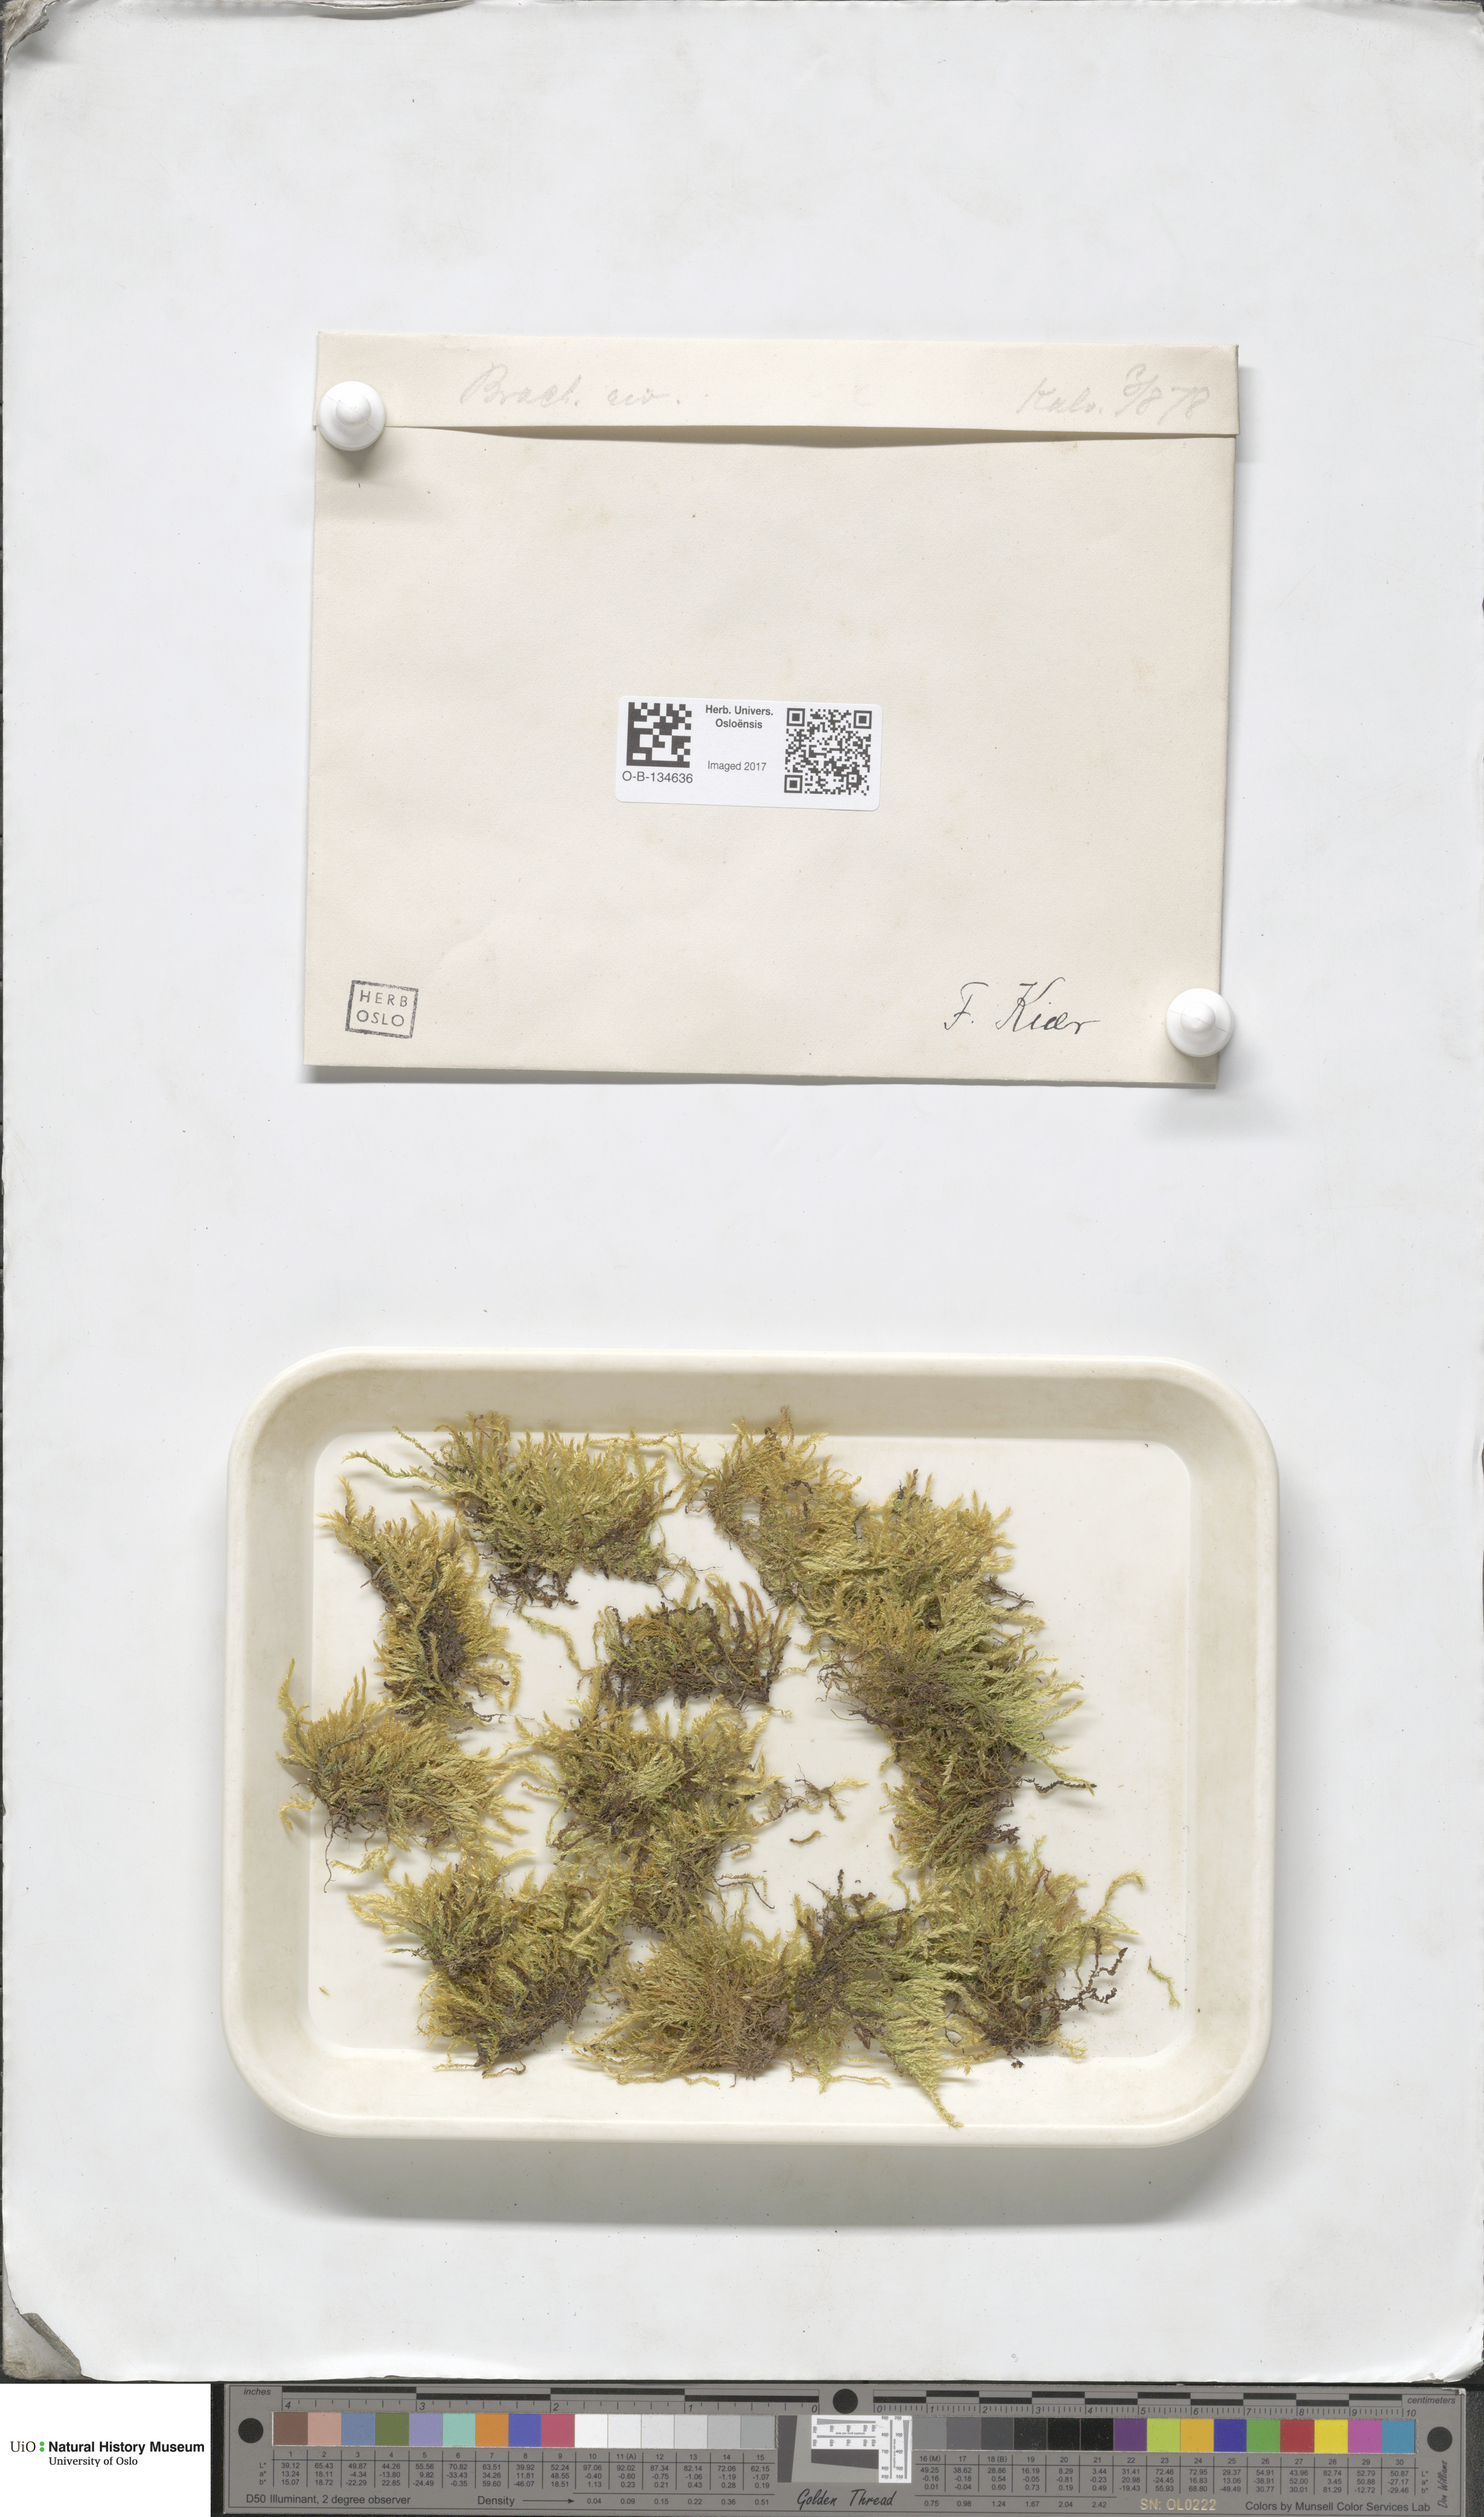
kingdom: Plantae
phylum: Bryophyta
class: Bryopsida
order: Hypnales
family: Brachytheciaceae
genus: Brachythecium
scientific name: Brachythecium rivulare
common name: River ragged moss
